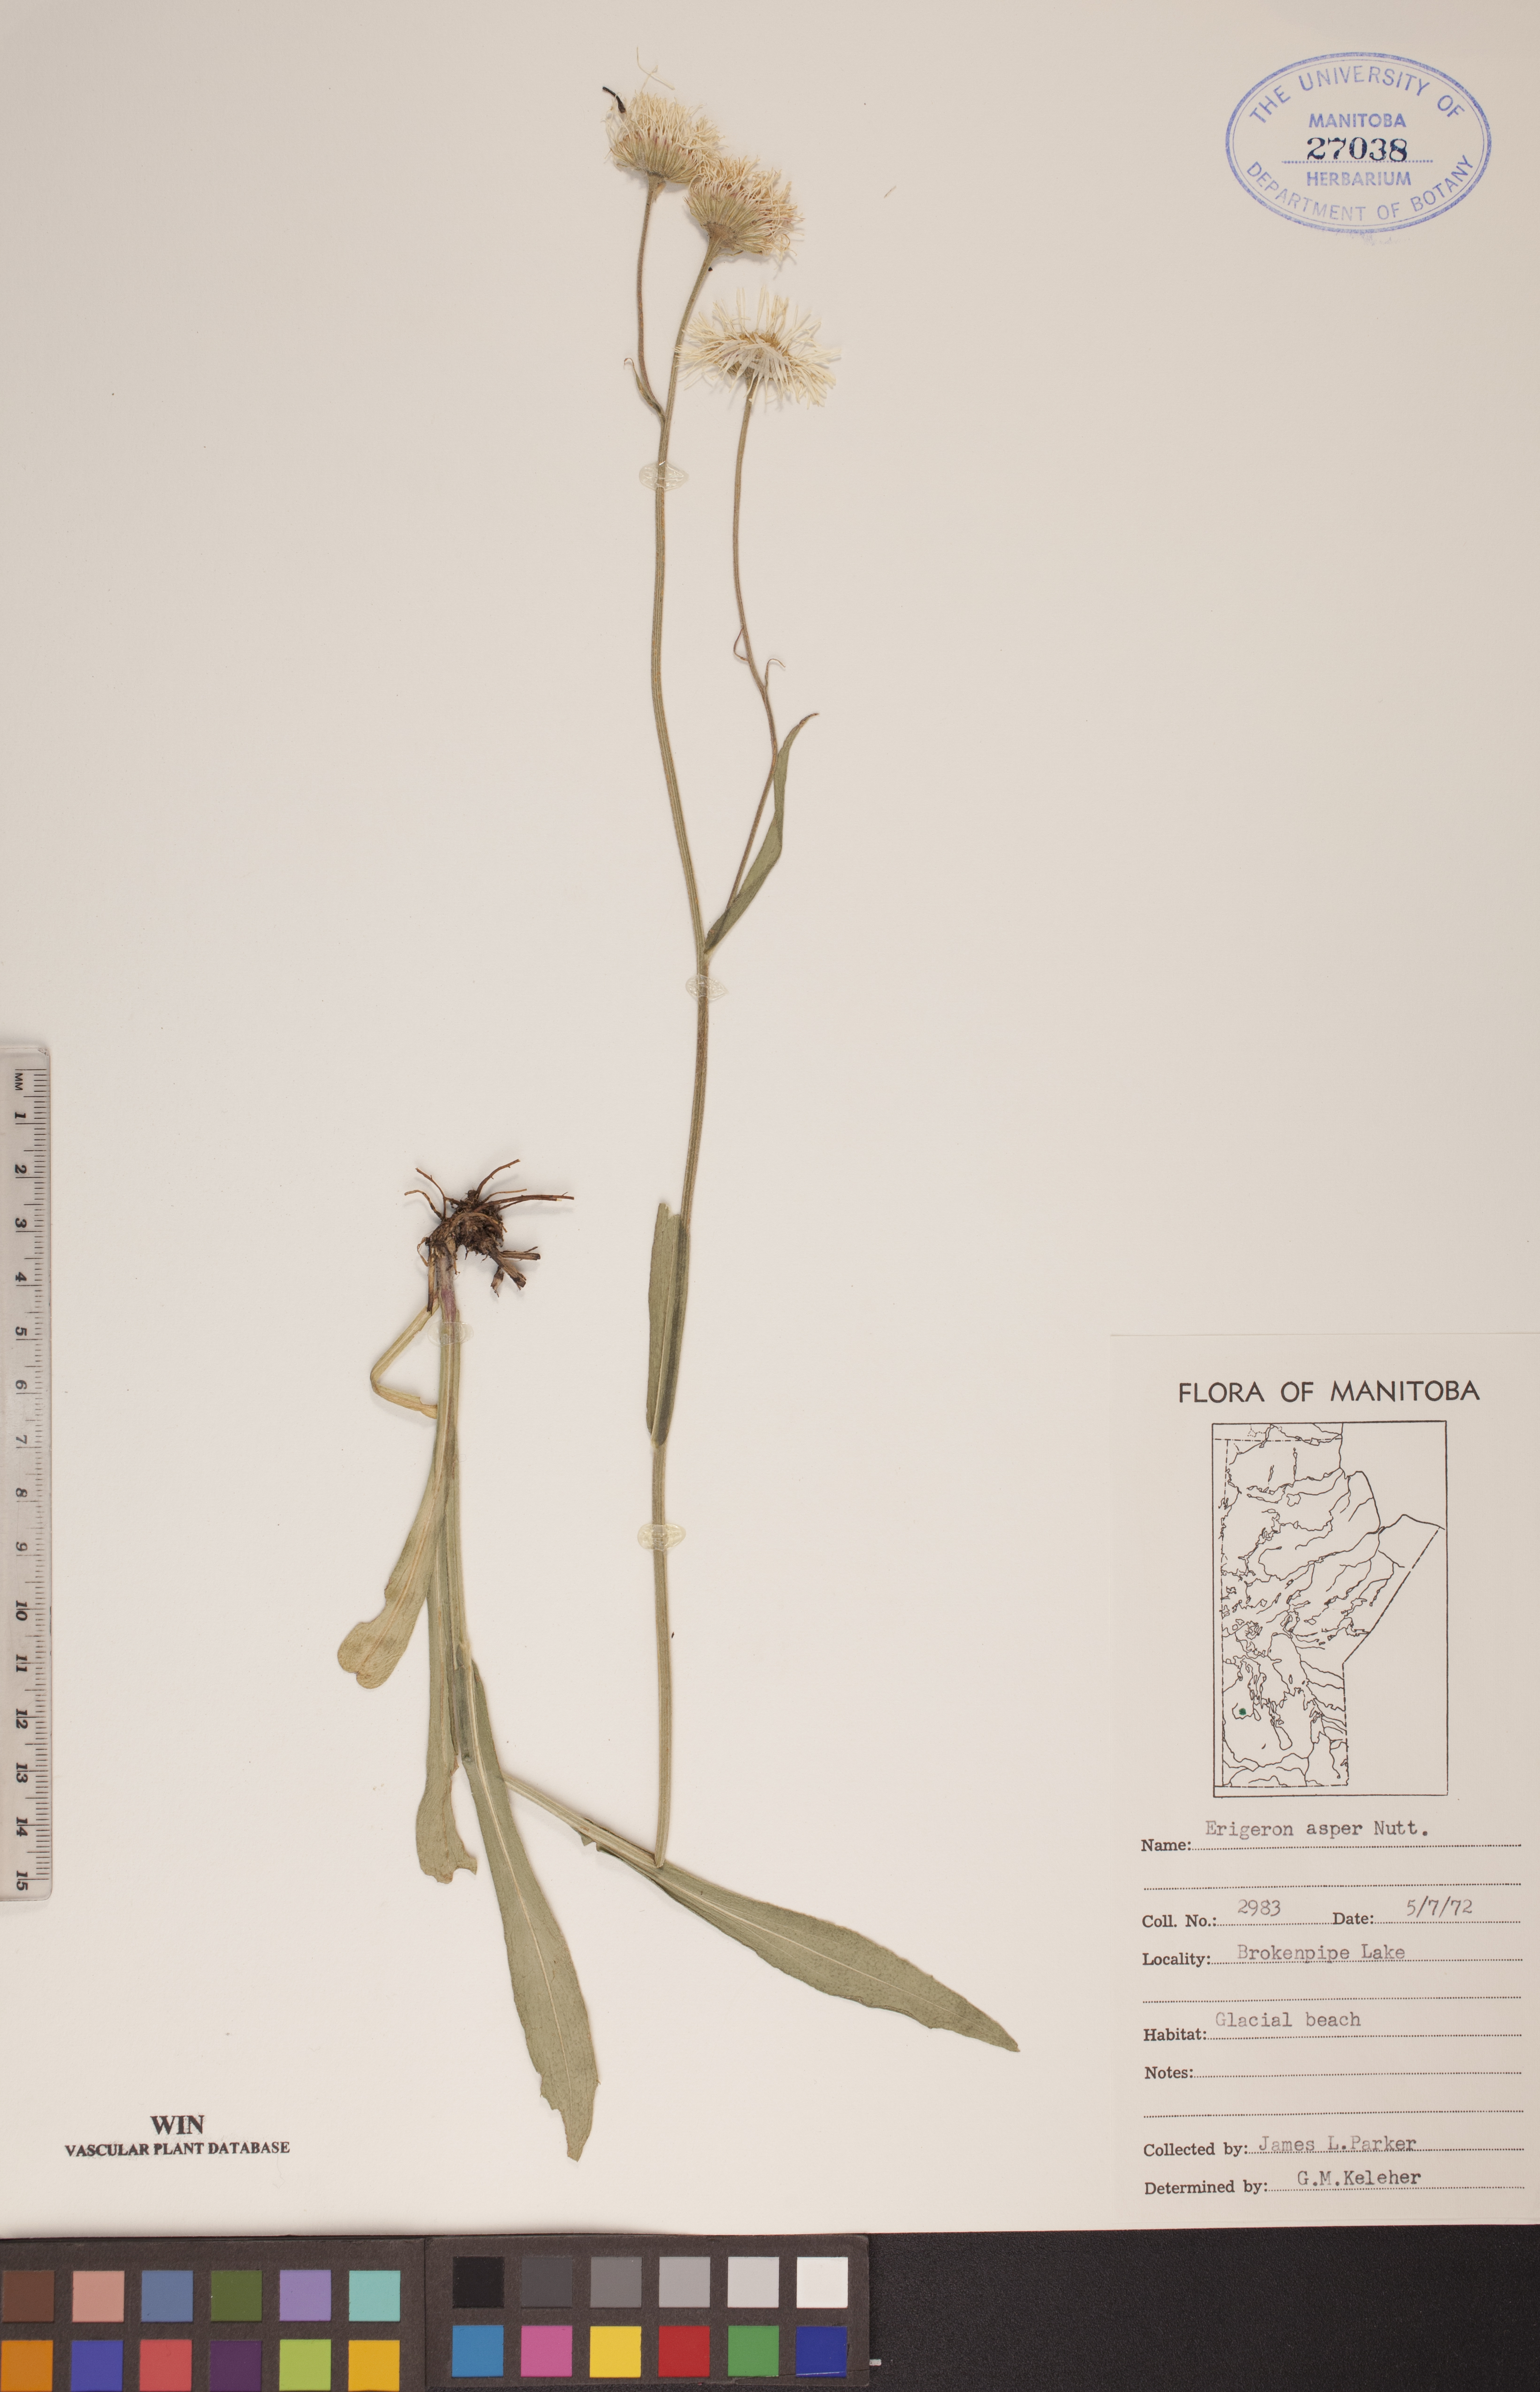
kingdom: Plantae
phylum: Tracheophyta
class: Magnoliopsida
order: Asterales
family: Asteraceae
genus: Erigeron
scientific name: Erigeron glabellus
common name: Smooth fleabane
